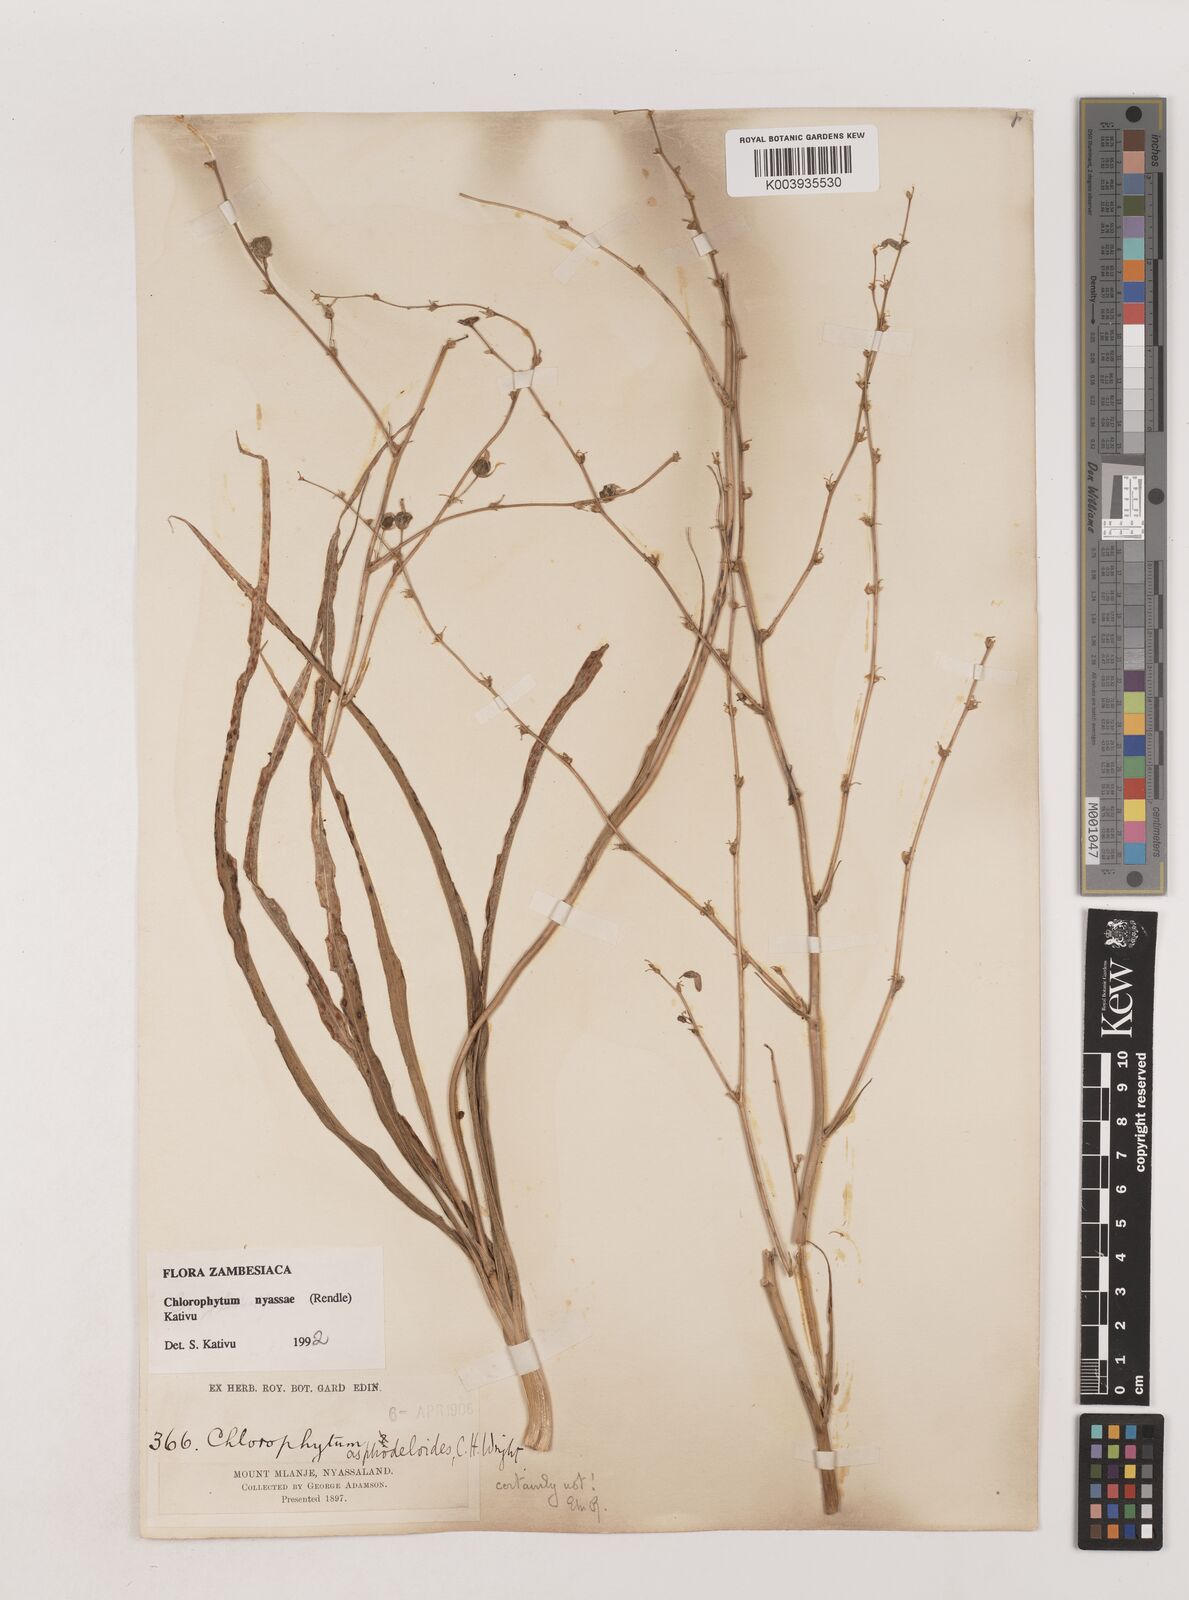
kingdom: Plantae
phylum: Tracheophyta
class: Liliopsida
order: Asparagales
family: Asparagaceae
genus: Chlorophytum
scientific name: Chlorophytum nyasae
